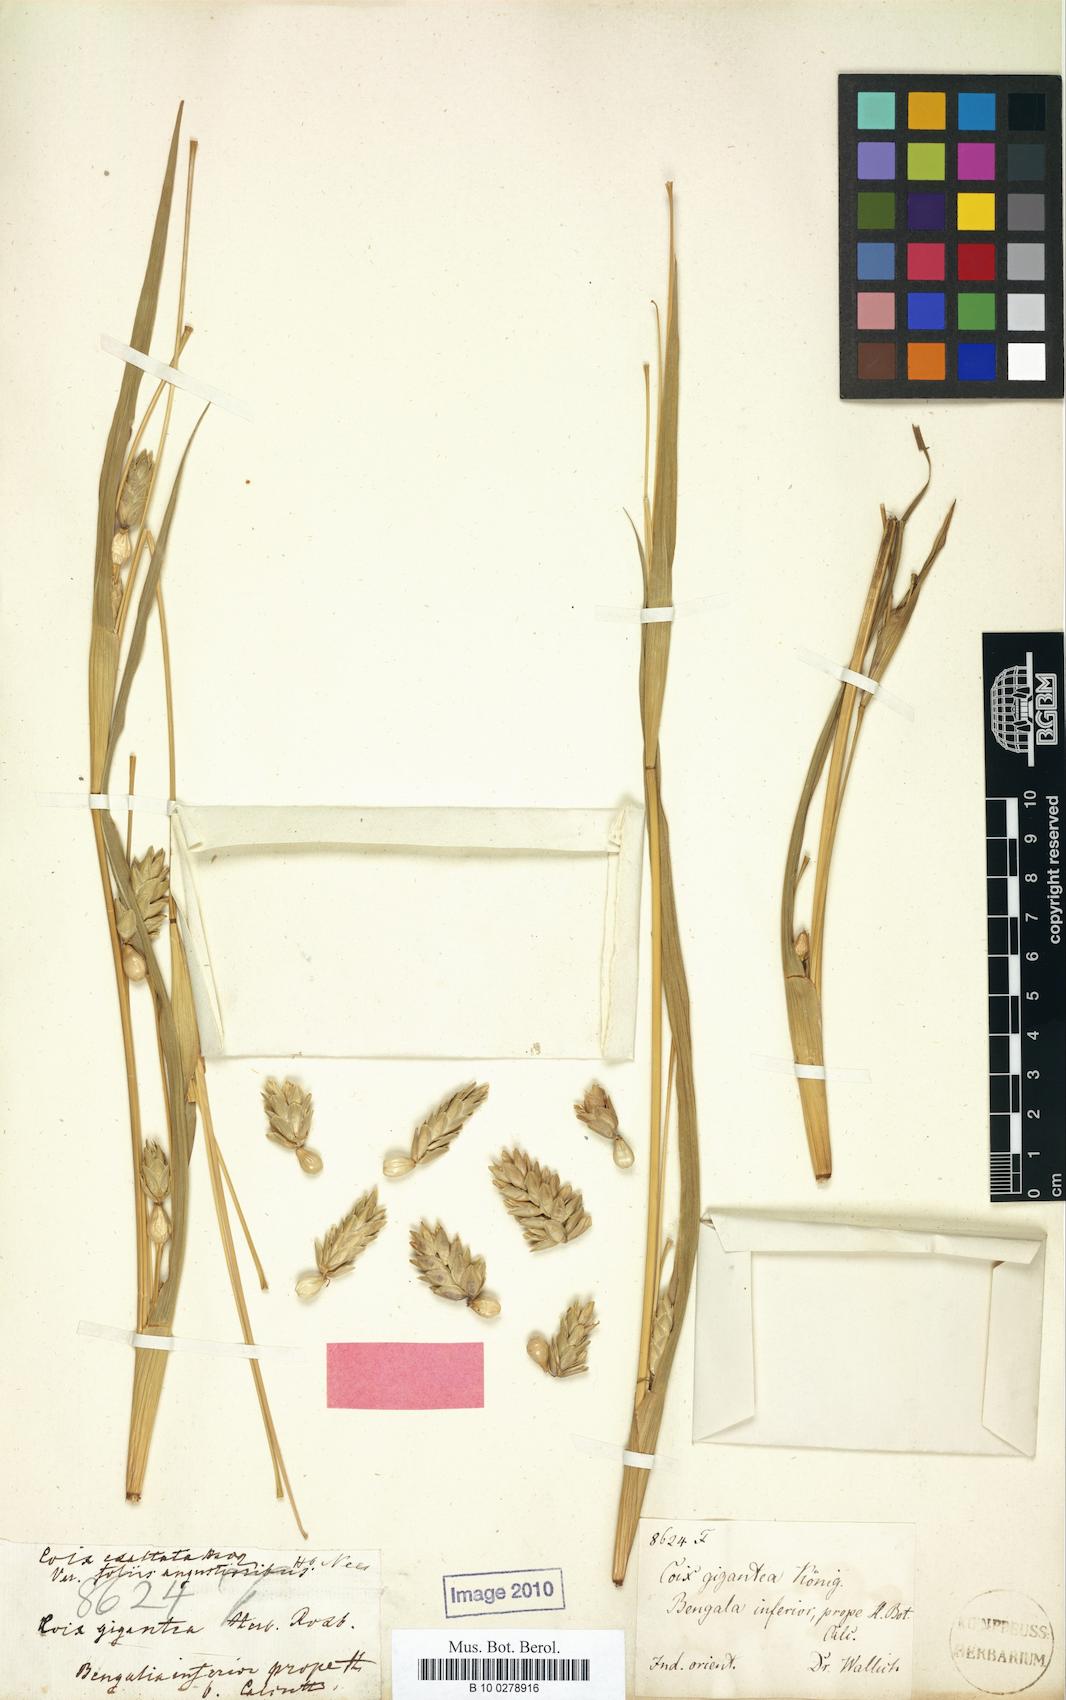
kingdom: Plantae
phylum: Tracheophyta
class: Liliopsida
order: Poales
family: Poaceae
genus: Polytoca
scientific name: Polytoca gigantea
